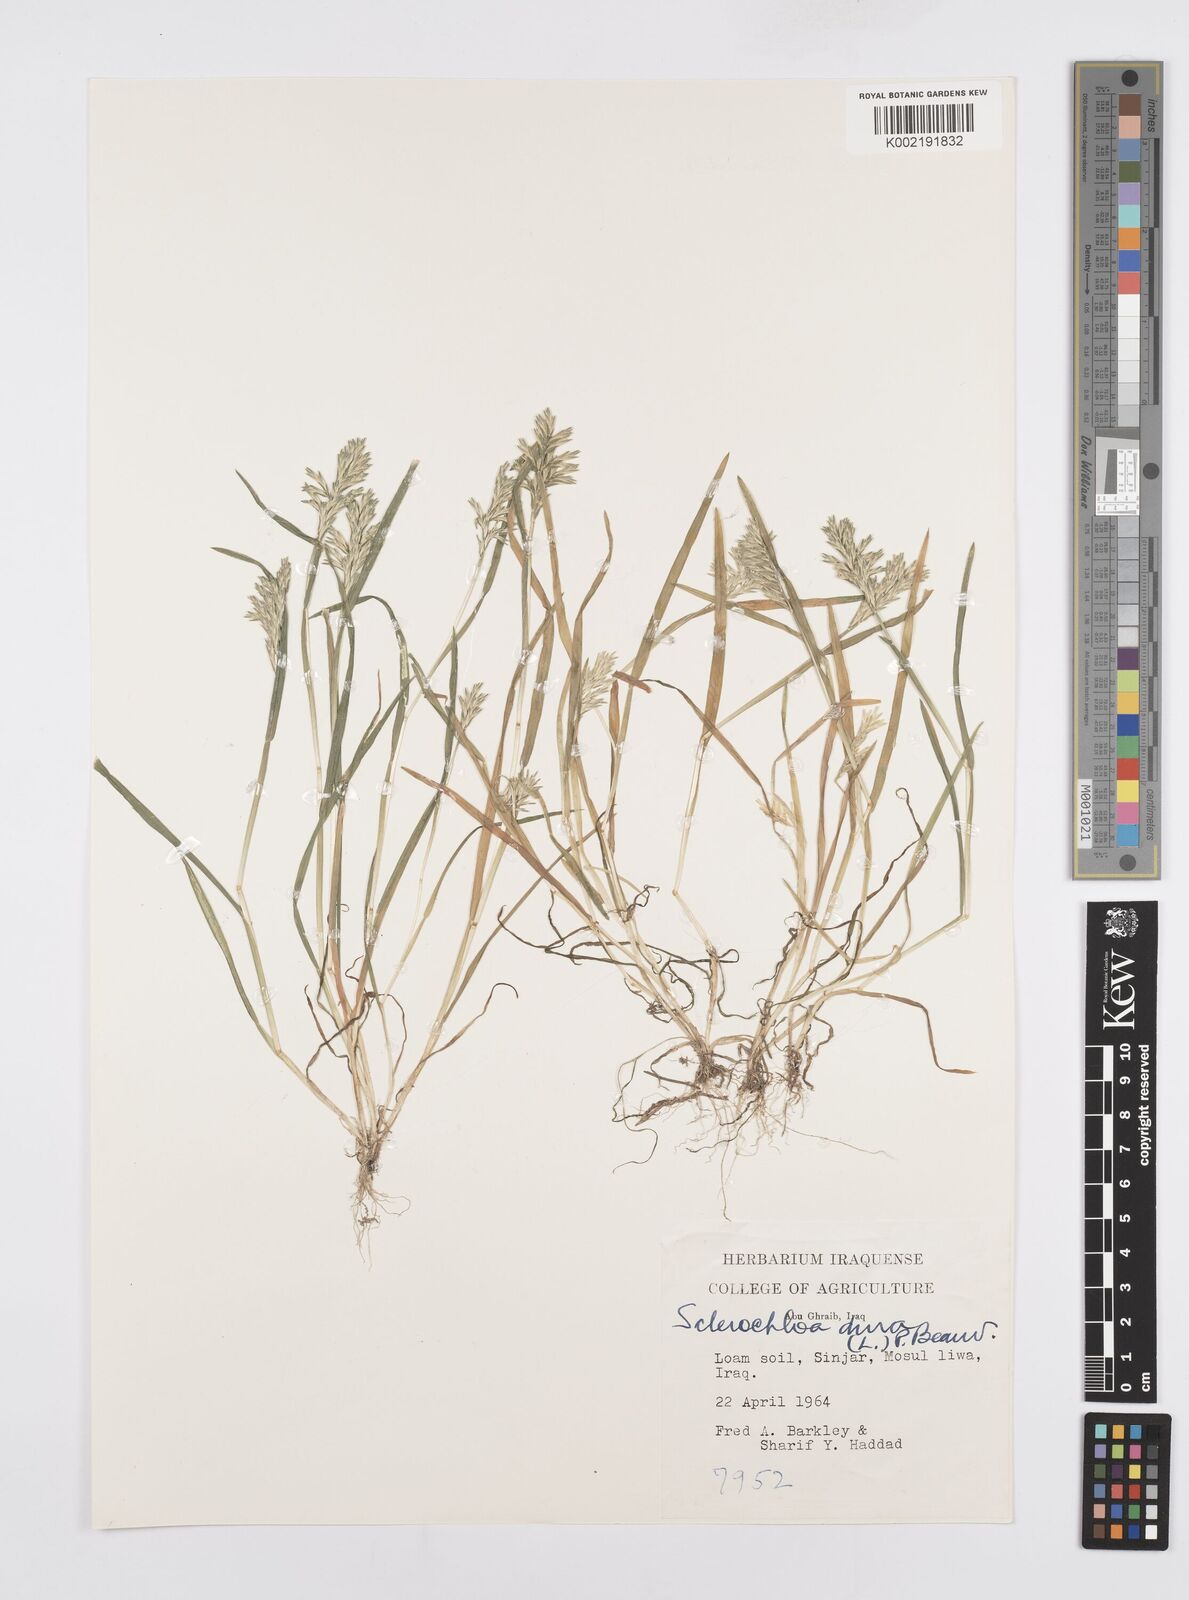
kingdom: Plantae
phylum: Tracheophyta
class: Liliopsida
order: Poales
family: Poaceae
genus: Sclerochloa
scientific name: Sclerochloa dura
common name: Common hardgrass
